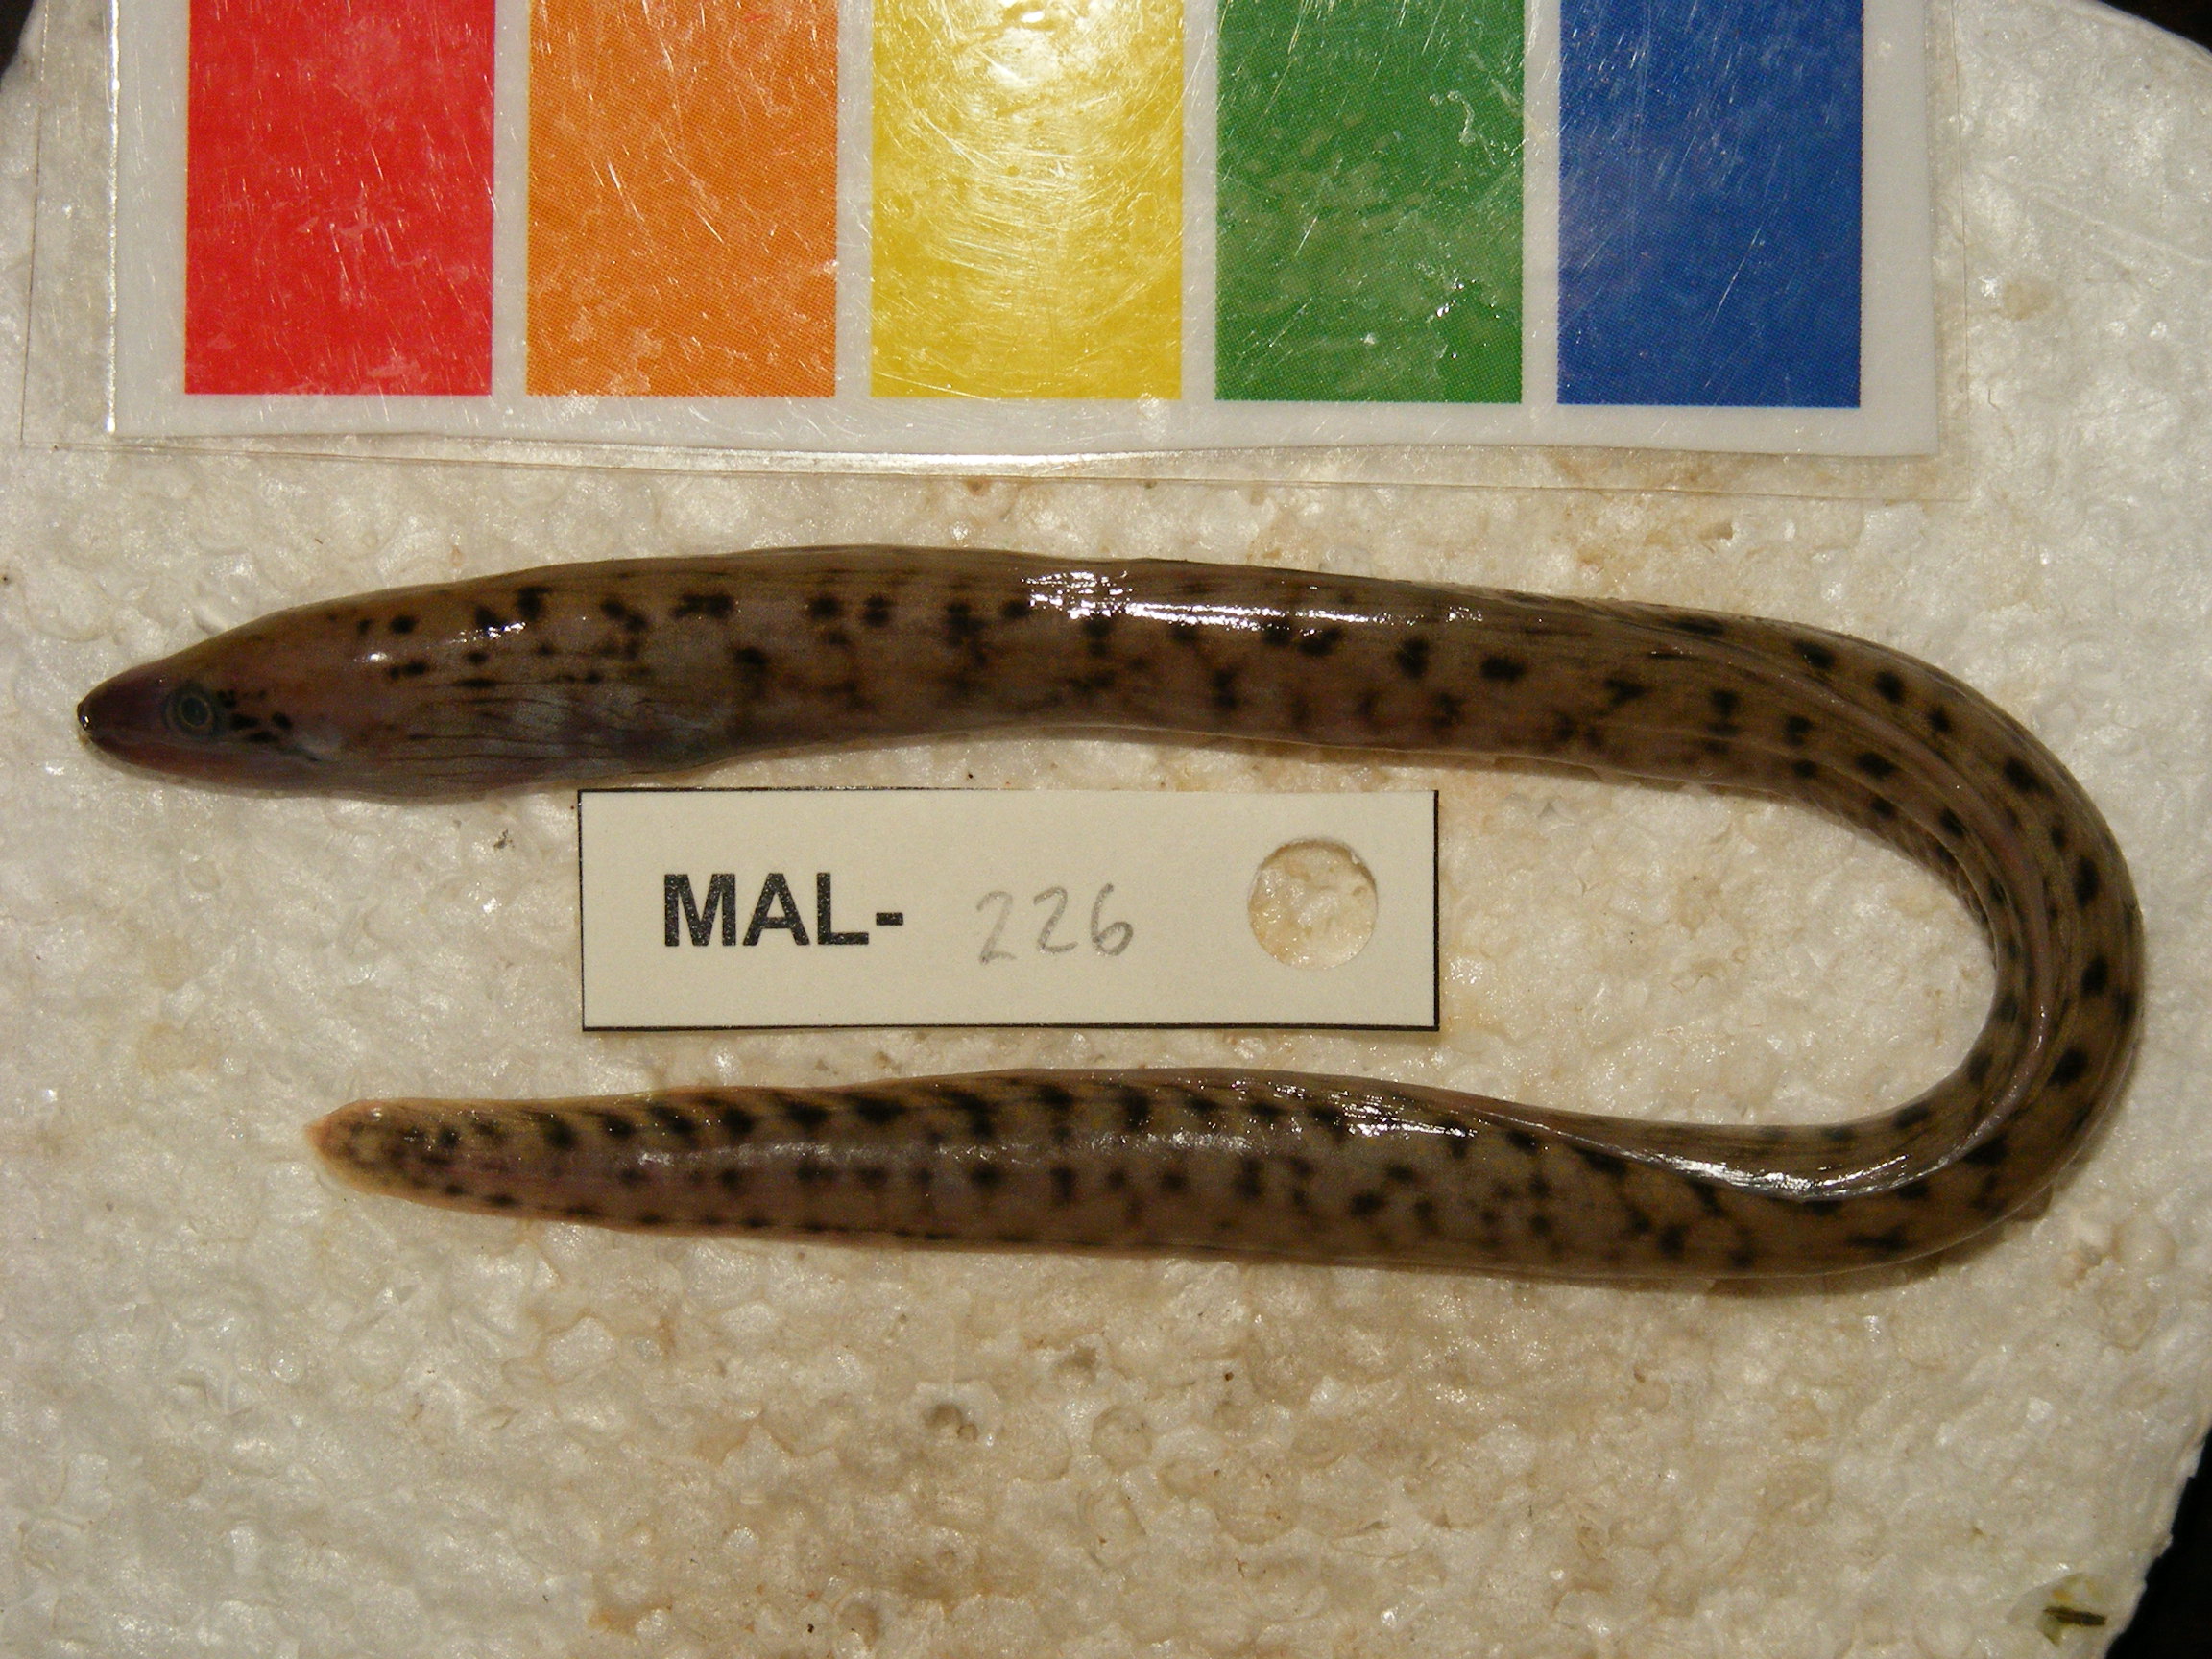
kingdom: Animalia
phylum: Chordata
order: Anguilliformes
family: Muraenidae
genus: Gymnothorax
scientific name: Gymnothorax undulatus
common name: Leopard moray
